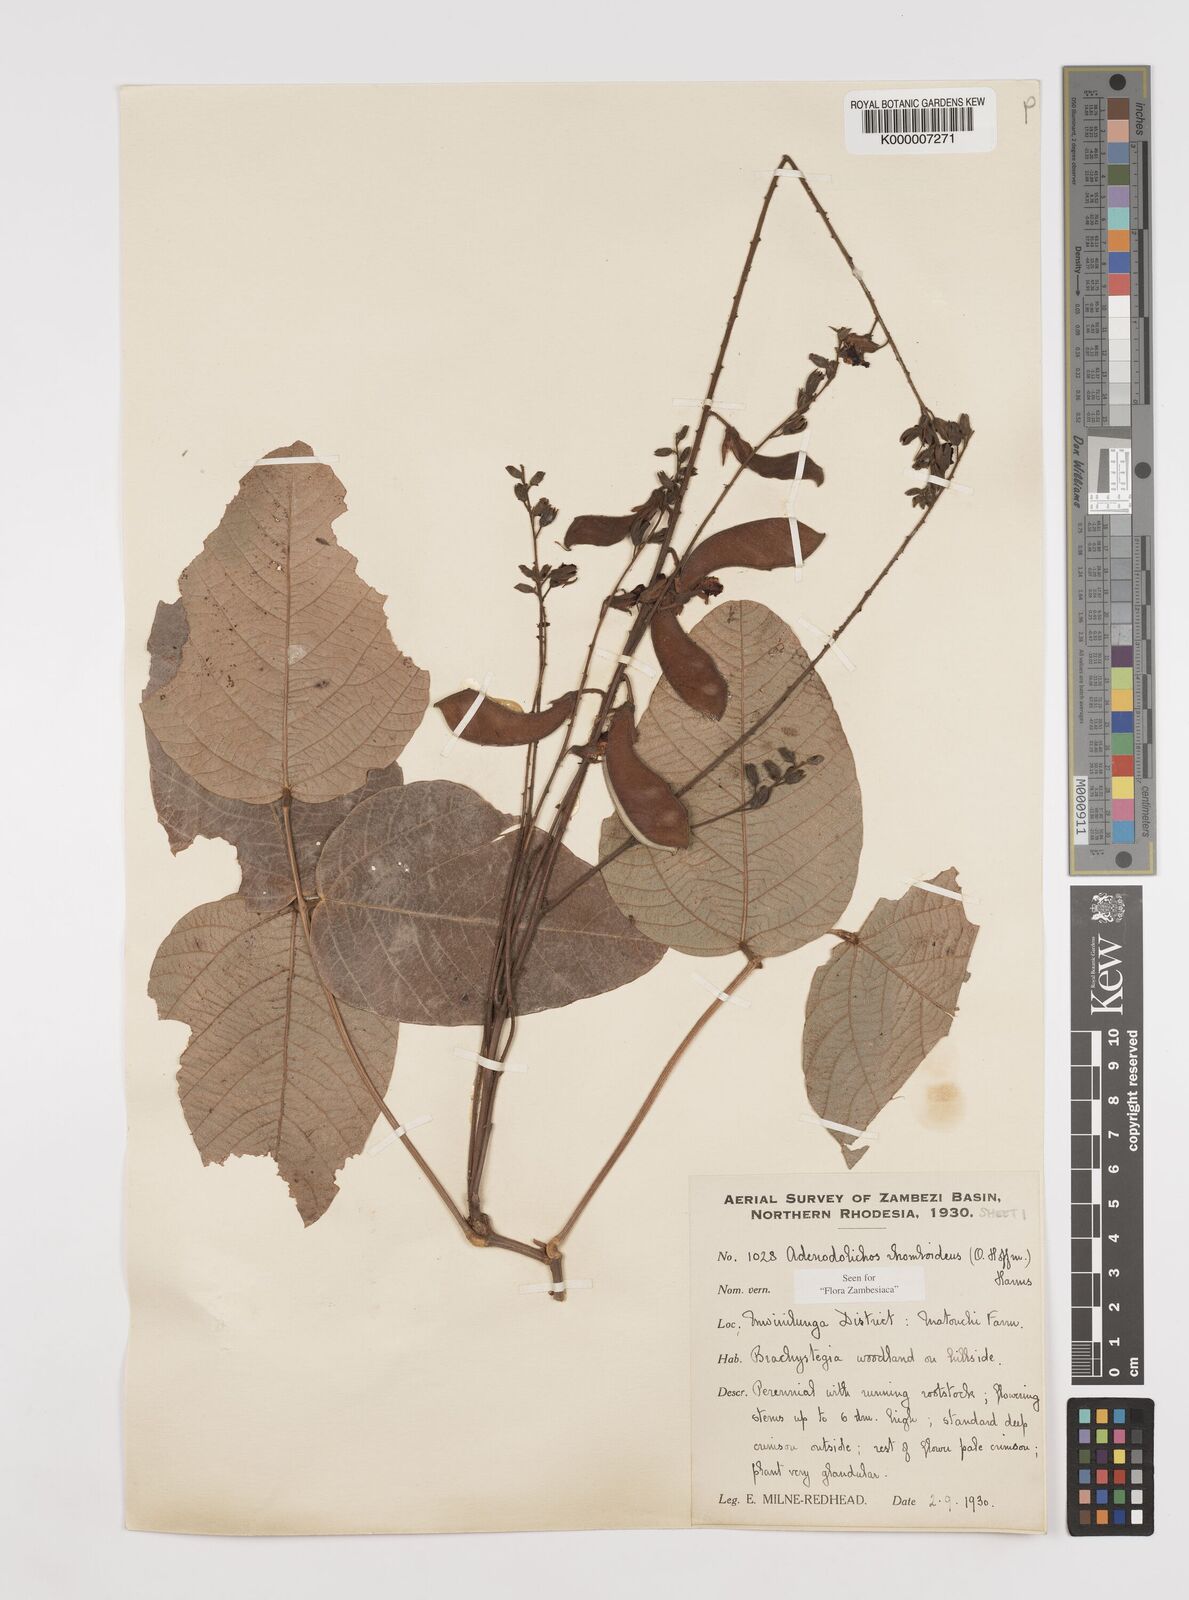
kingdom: Plantae
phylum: Tracheophyta
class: Magnoliopsida
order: Fabales
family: Fabaceae
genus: Adenodolichos
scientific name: Adenodolichos rhomboideus
